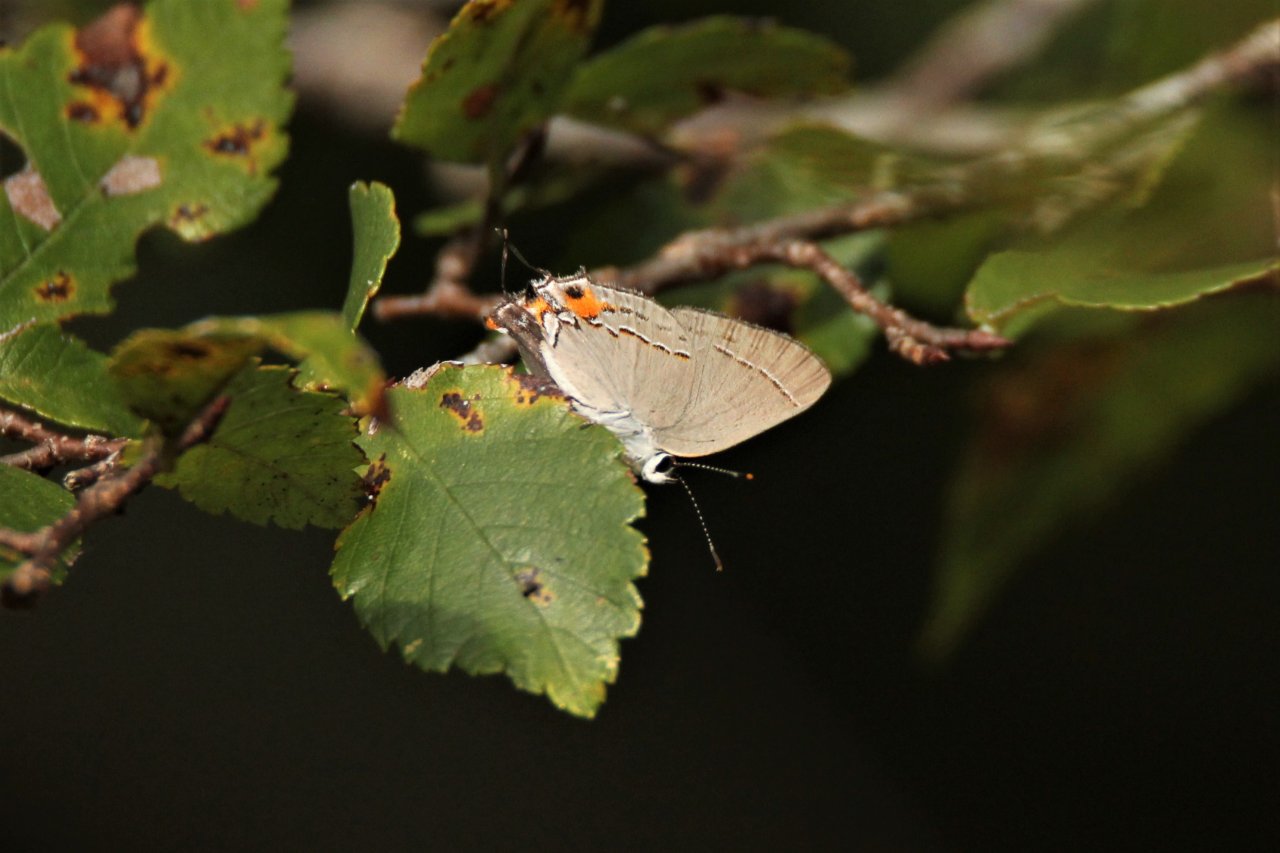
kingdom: Animalia
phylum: Arthropoda
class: Insecta
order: Lepidoptera
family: Lycaenidae
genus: Strymon
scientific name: Strymon melinus
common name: Gray Hairstreak
